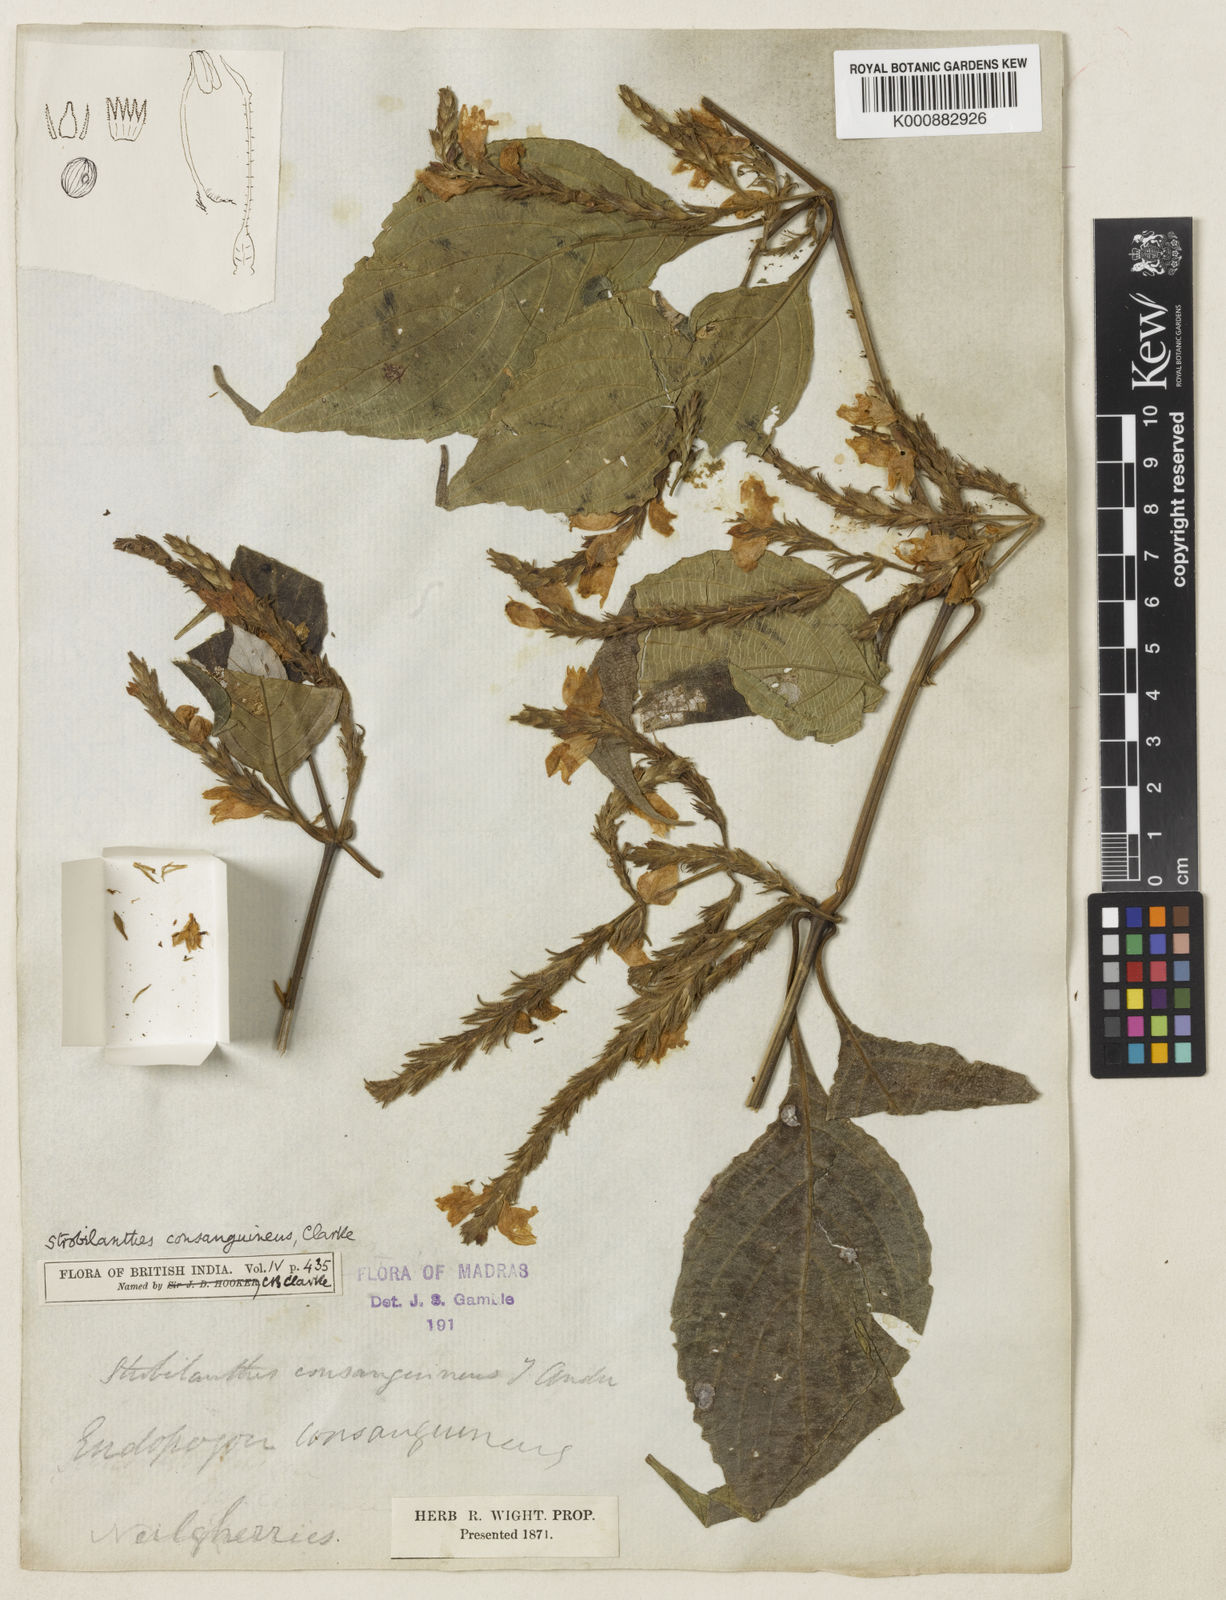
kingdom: Plantae
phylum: Tracheophyta
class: Magnoliopsida
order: Lamiales
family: Acanthaceae
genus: Strobilanthes
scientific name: Strobilanthes diandra
